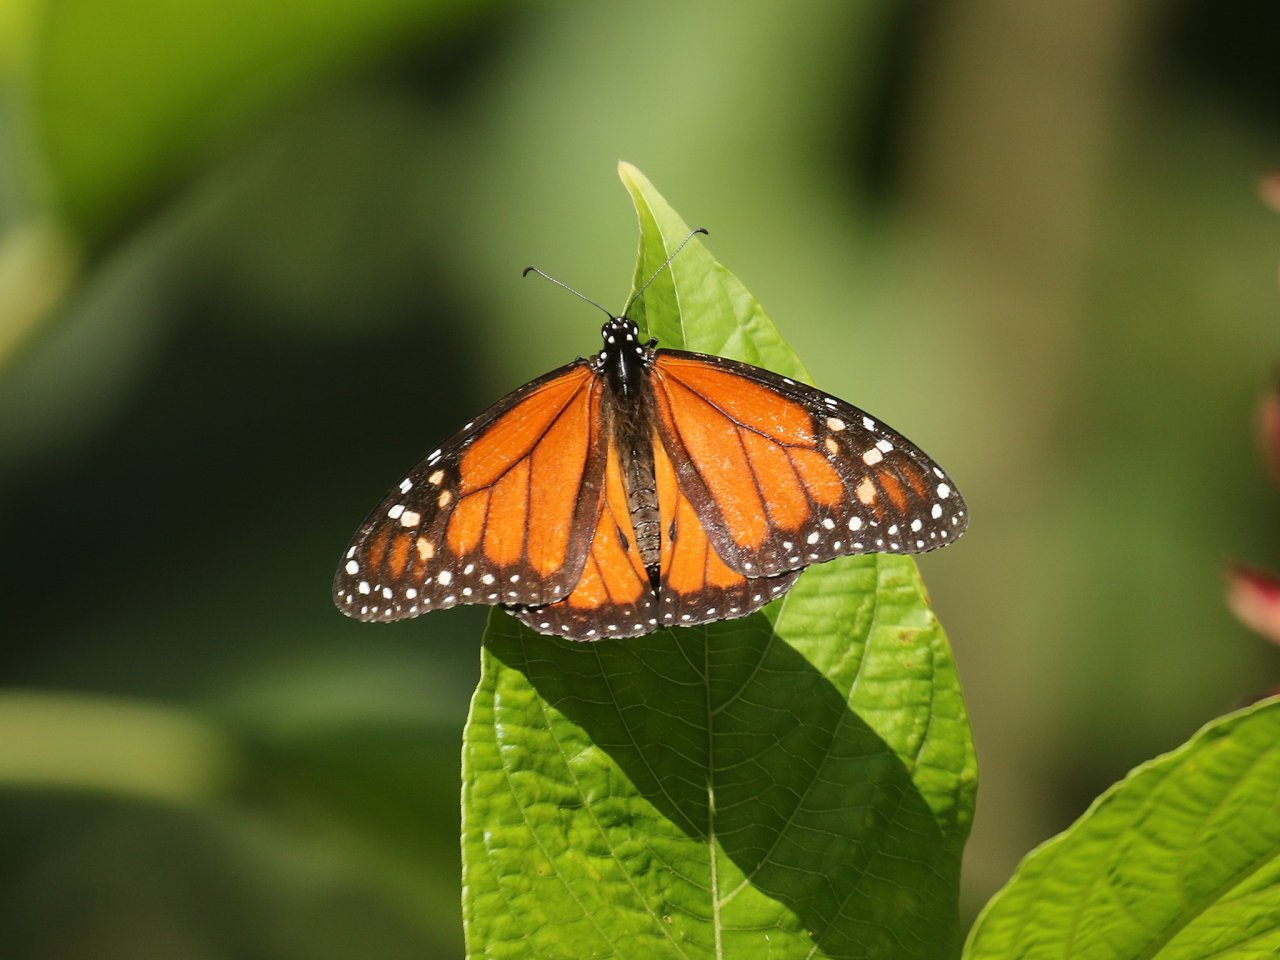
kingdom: Animalia
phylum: Arthropoda
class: Insecta
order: Lepidoptera
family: Nymphalidae
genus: Danaus
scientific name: Danaus plexippus
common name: Monarch
